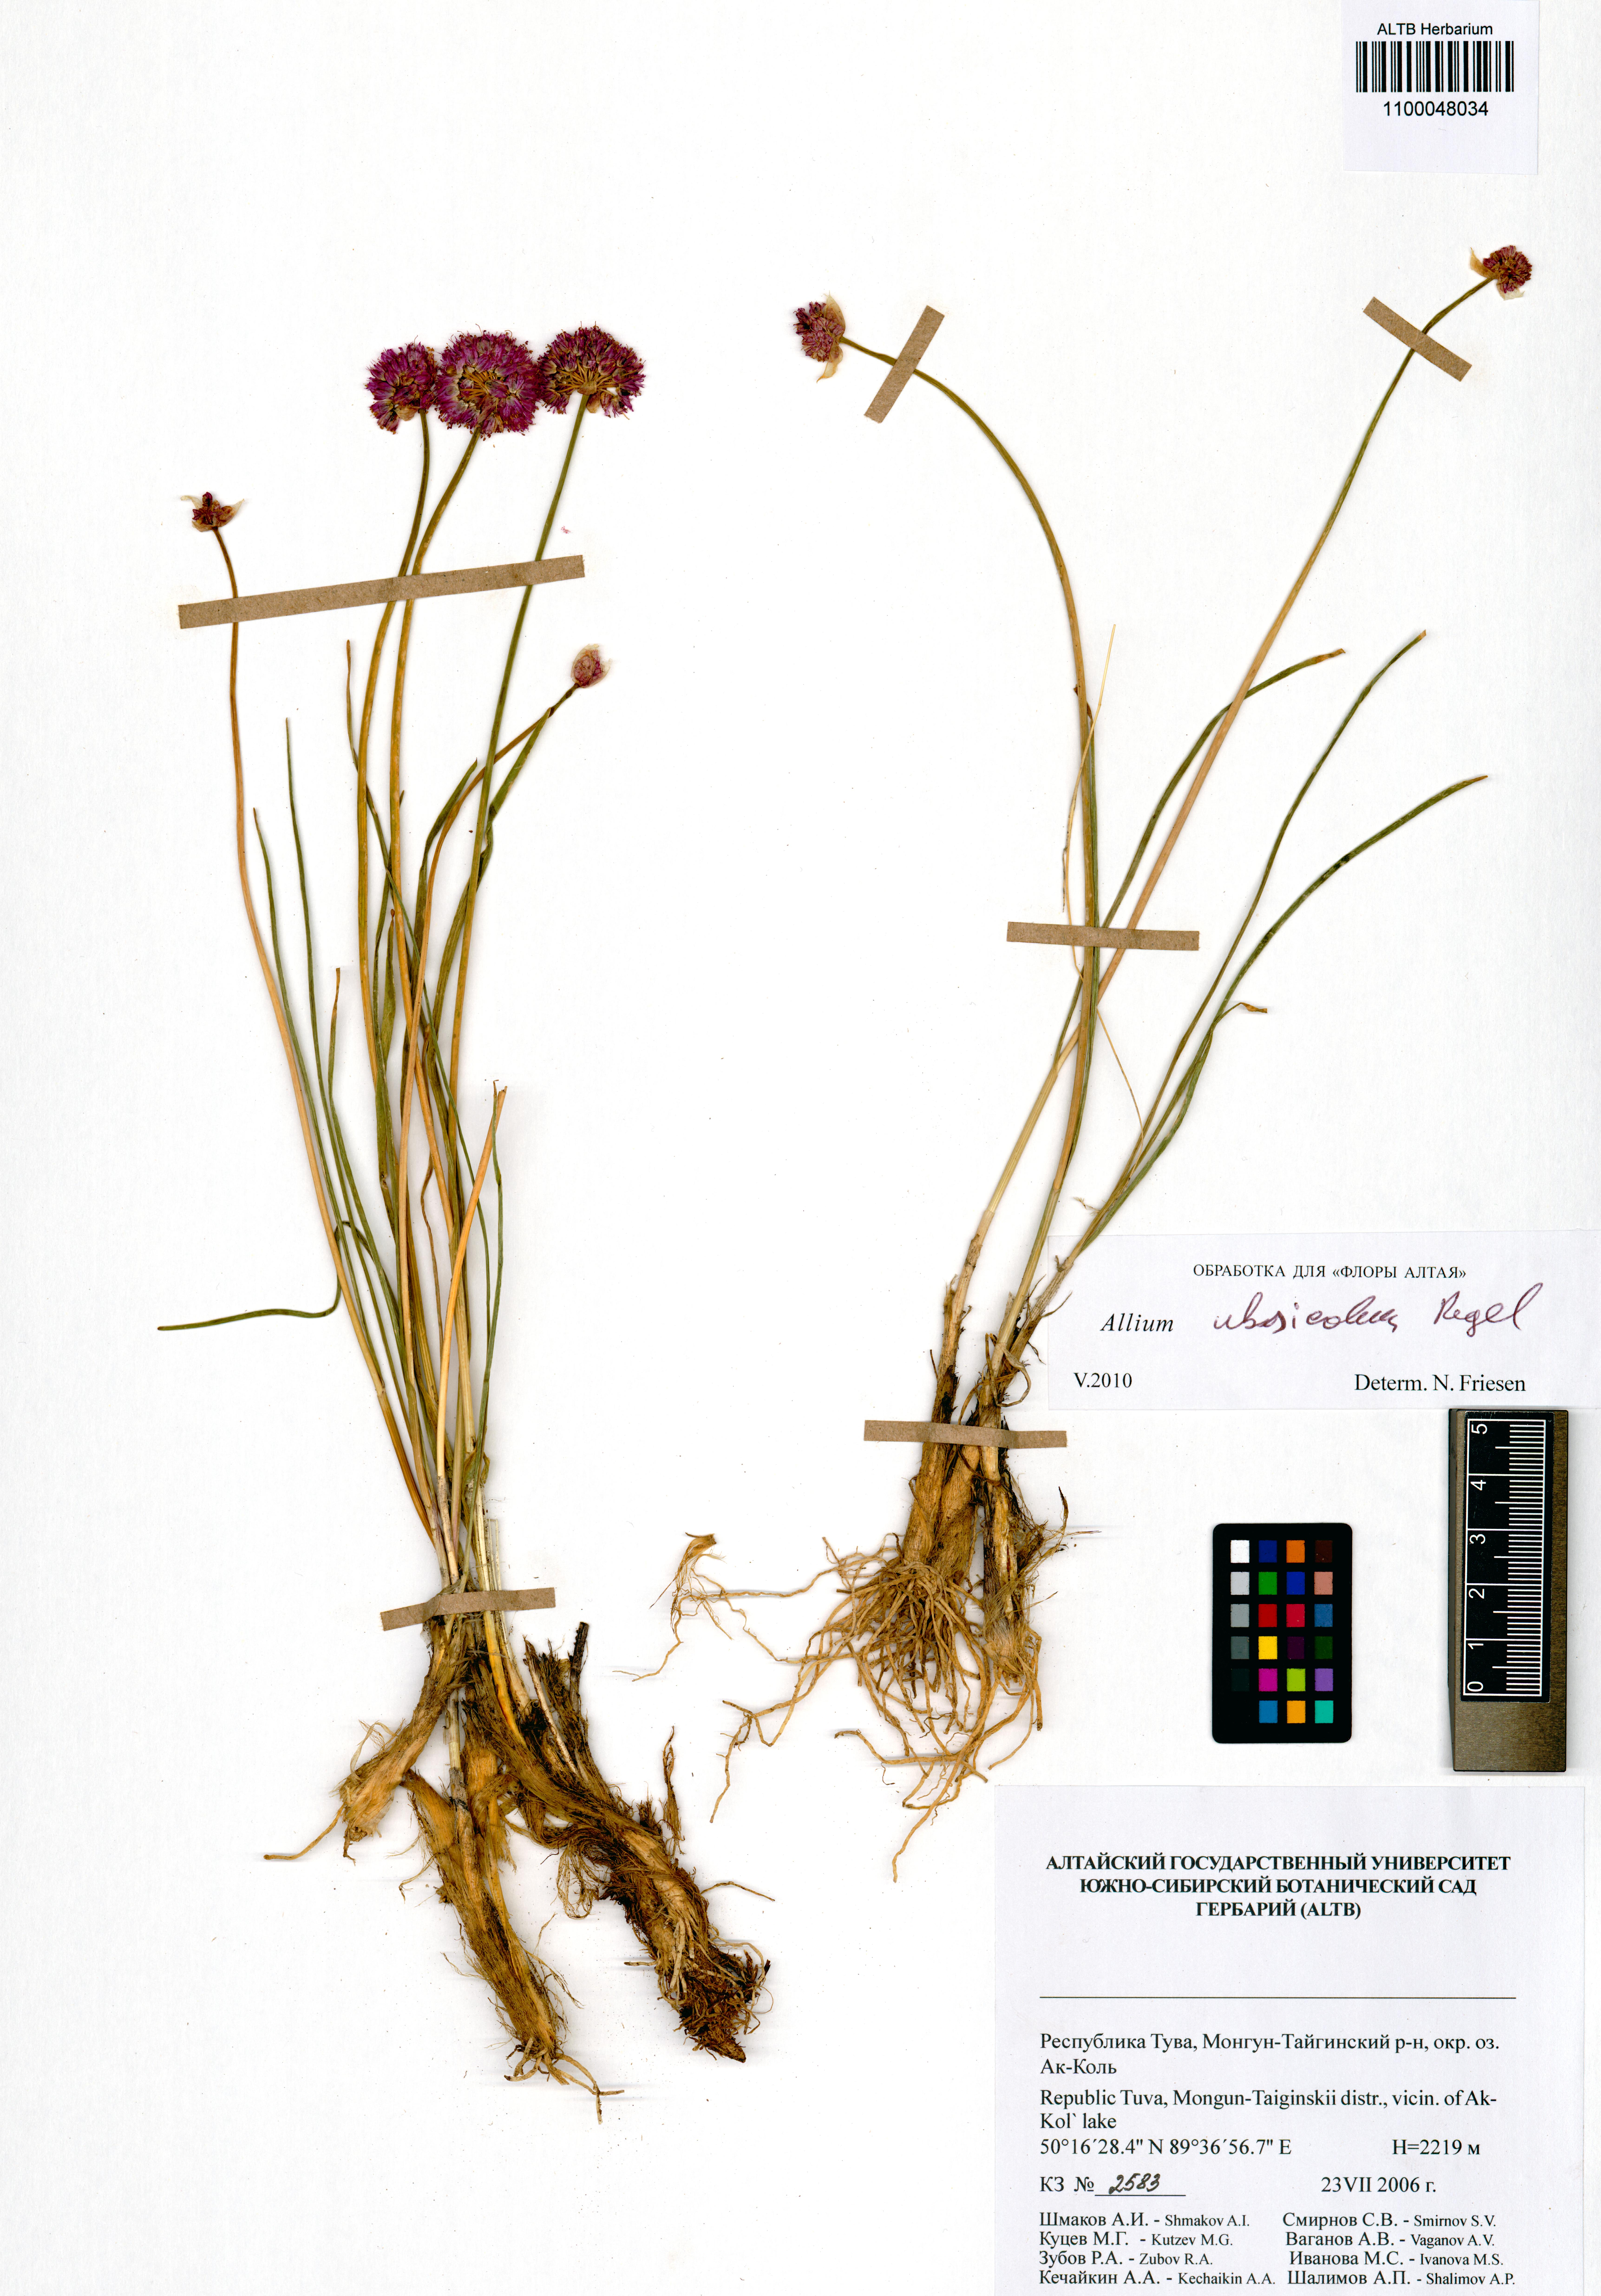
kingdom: Plantae
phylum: Tracheophyta
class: Liliopsida
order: Asparagales
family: Amaryllidaceae
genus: Allium
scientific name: Allium ubsicola
